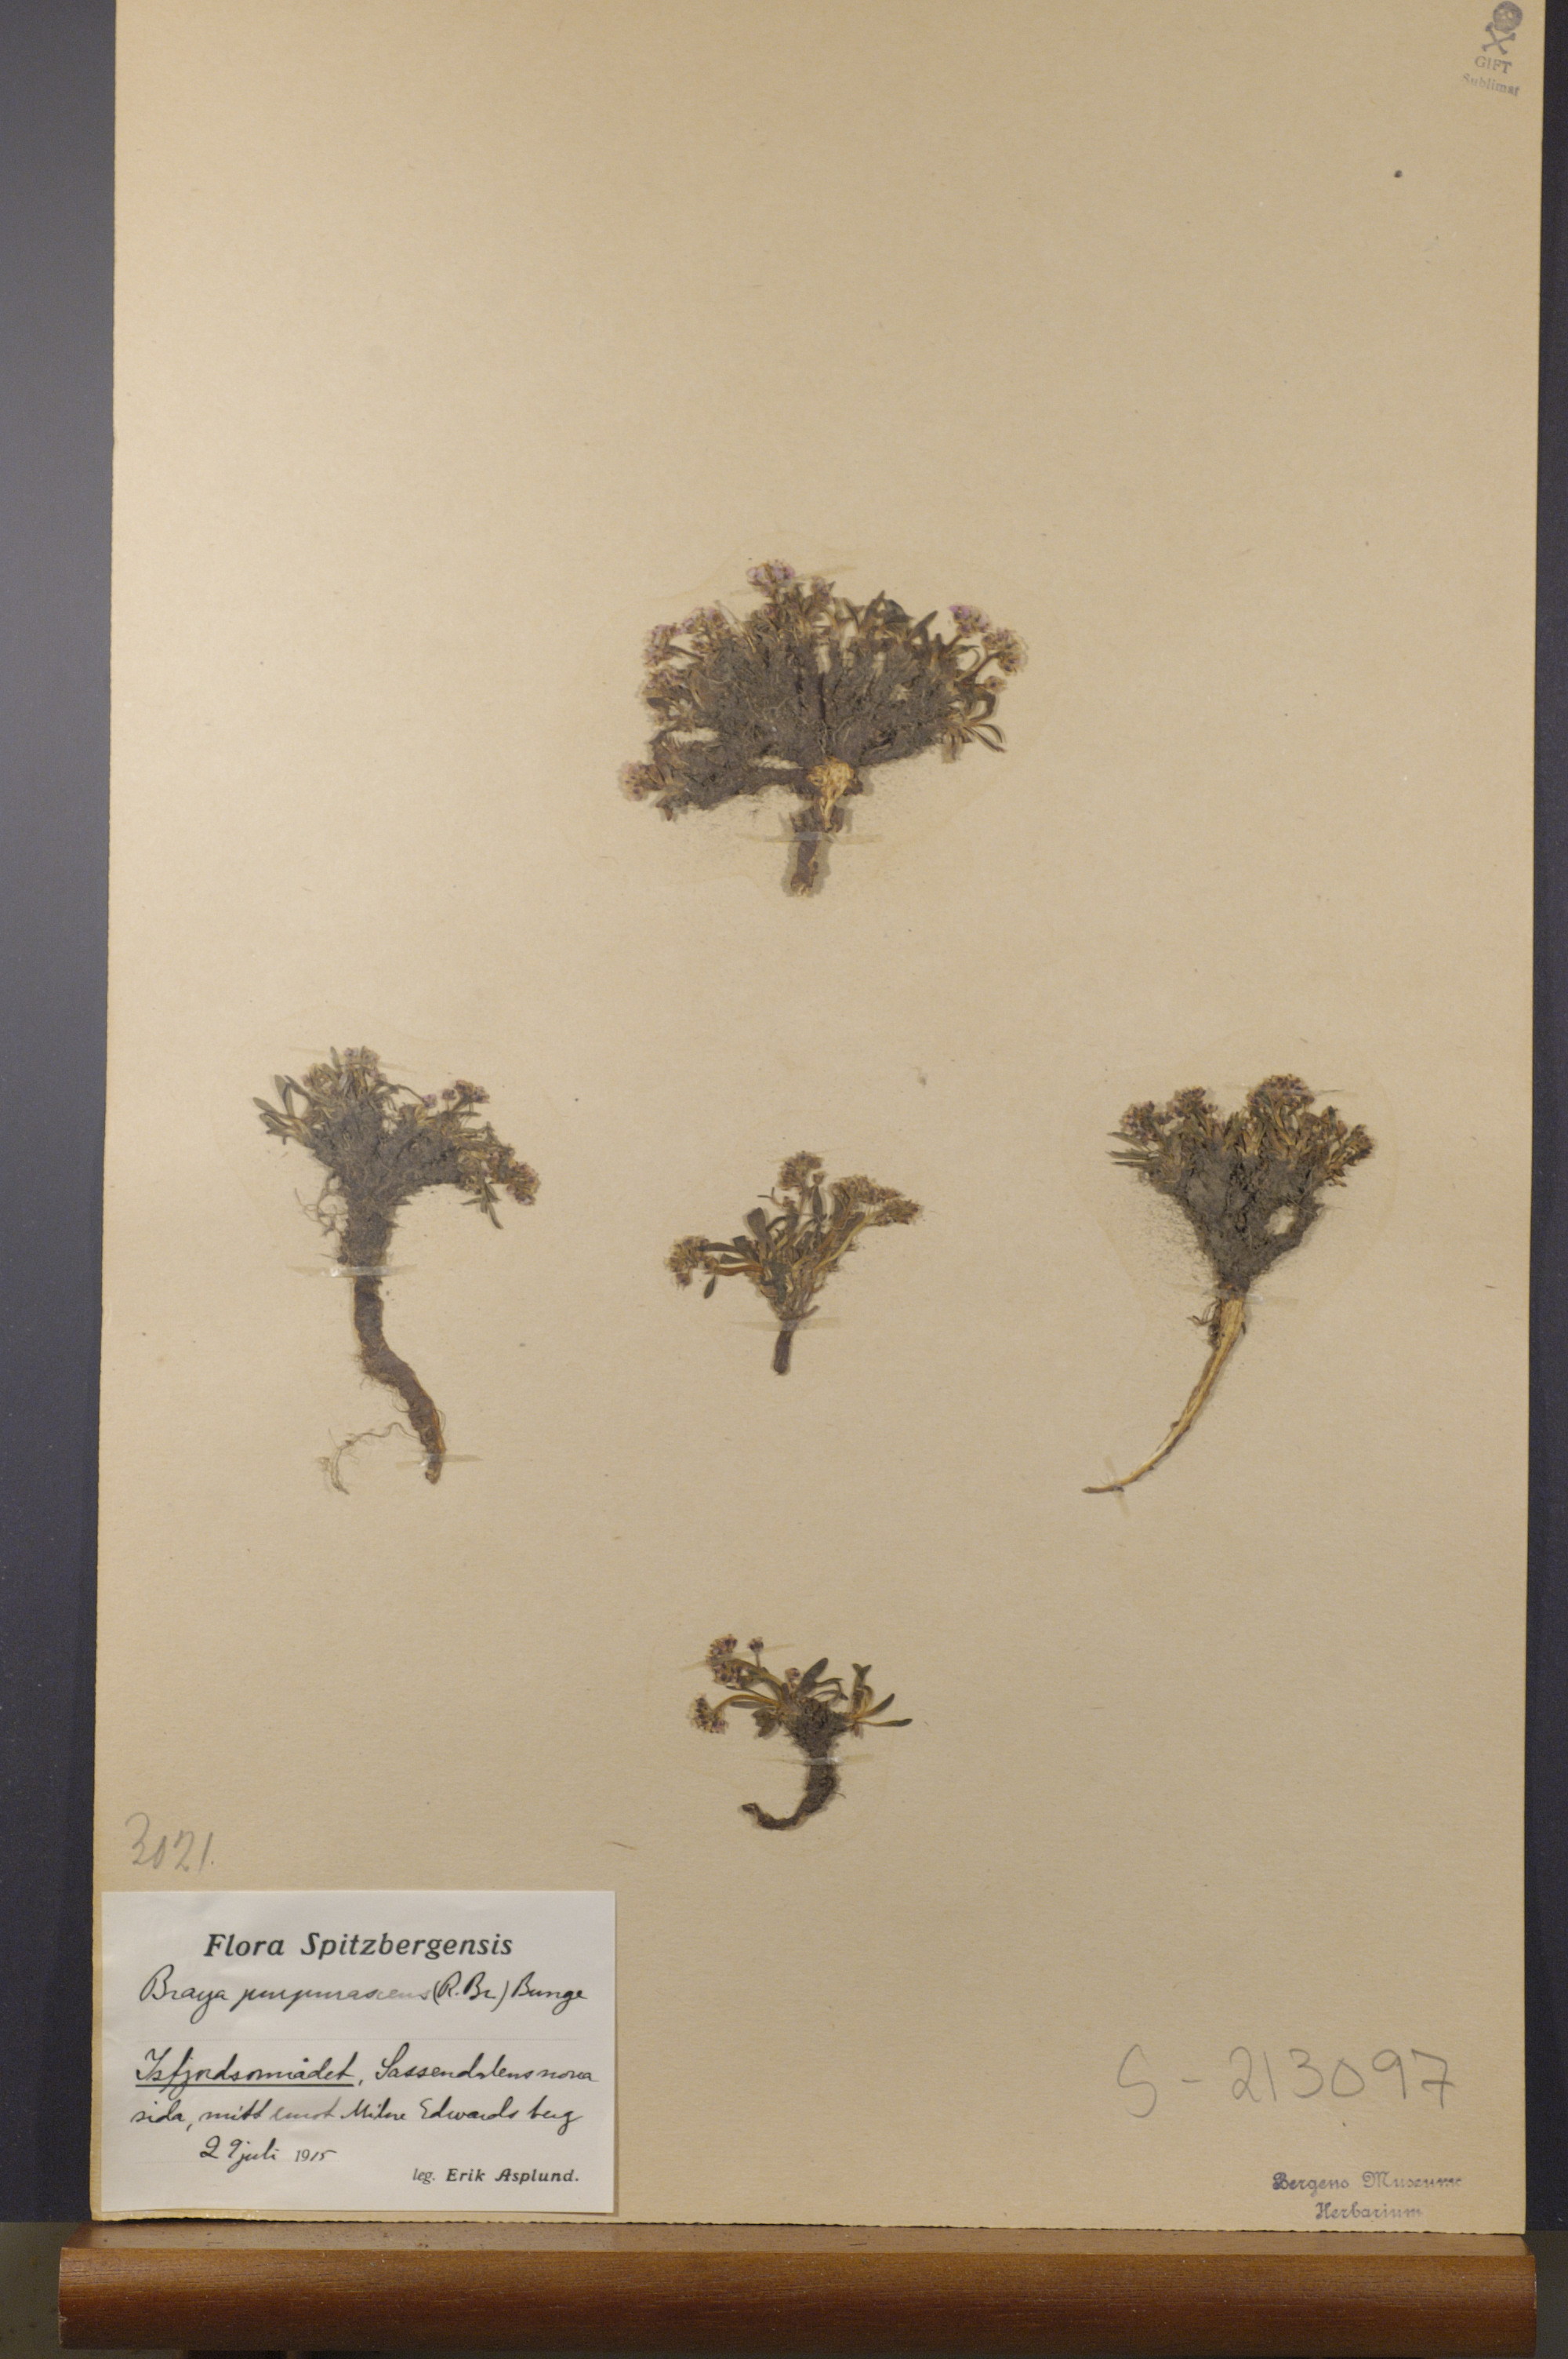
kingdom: Plantae
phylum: Tracheophyta
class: Magnoliopsida
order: Brassicales
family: Brassicaceae
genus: Braya
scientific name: Braya purpurascens
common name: Alpine braya
